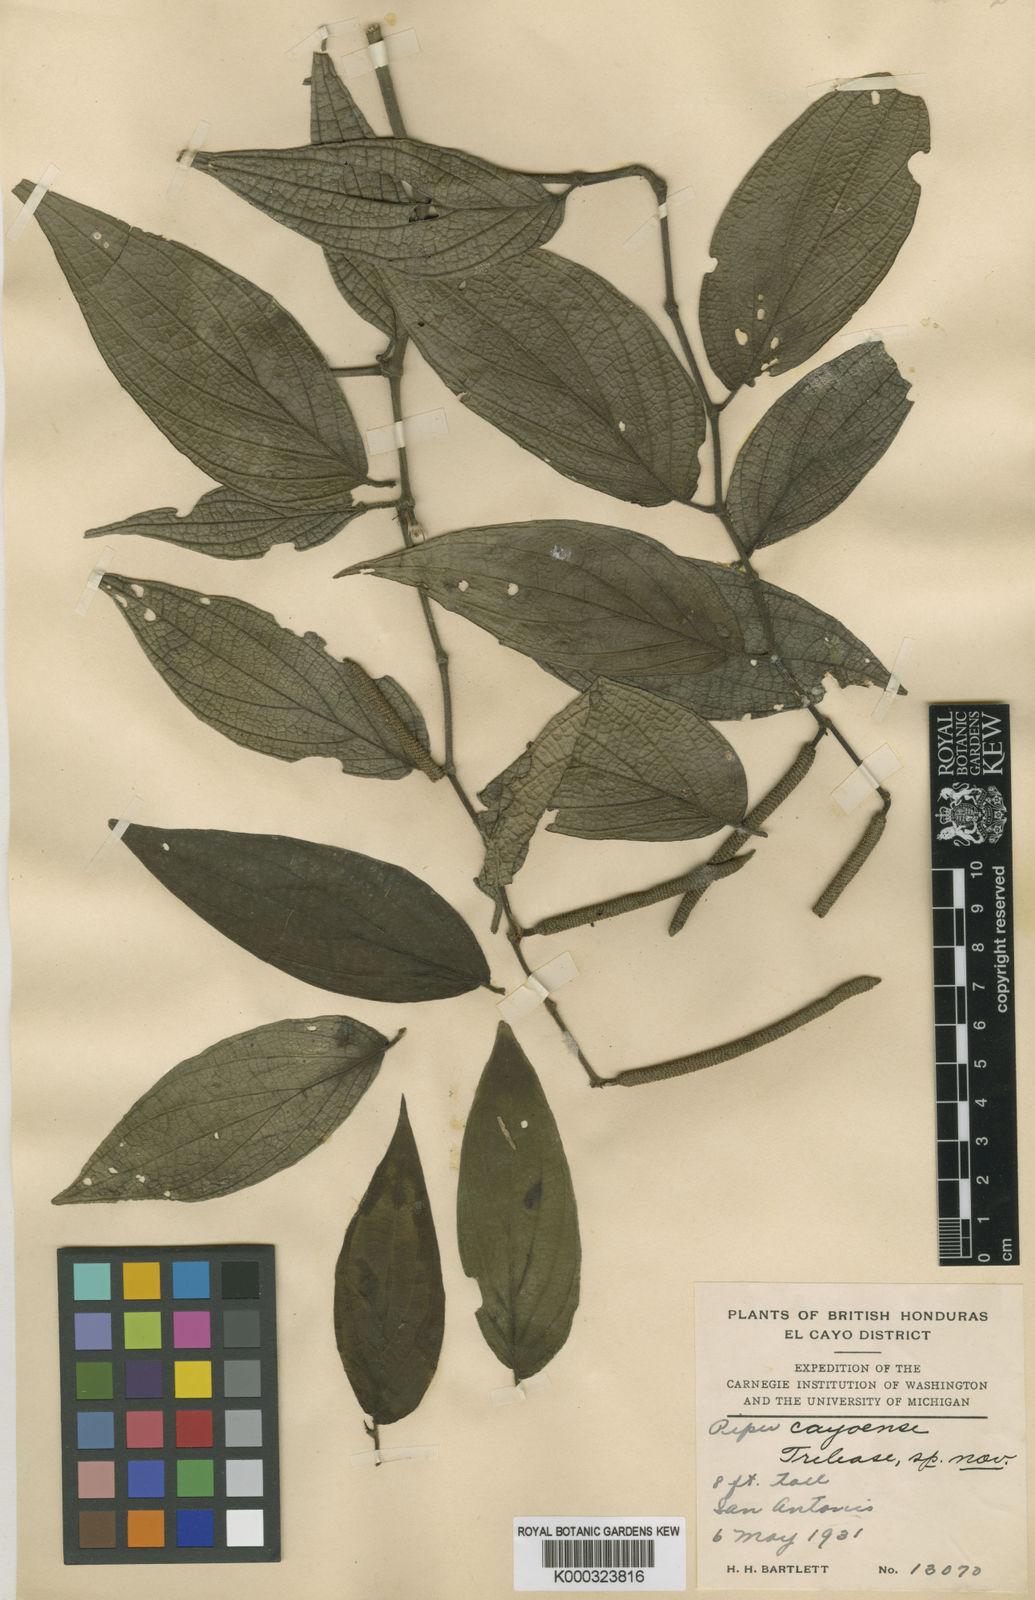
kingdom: Plantae
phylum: Tracheophyta
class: Magnoliopsida
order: Piperales
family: Piperaceae
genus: Piper
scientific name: Piper cayoense
